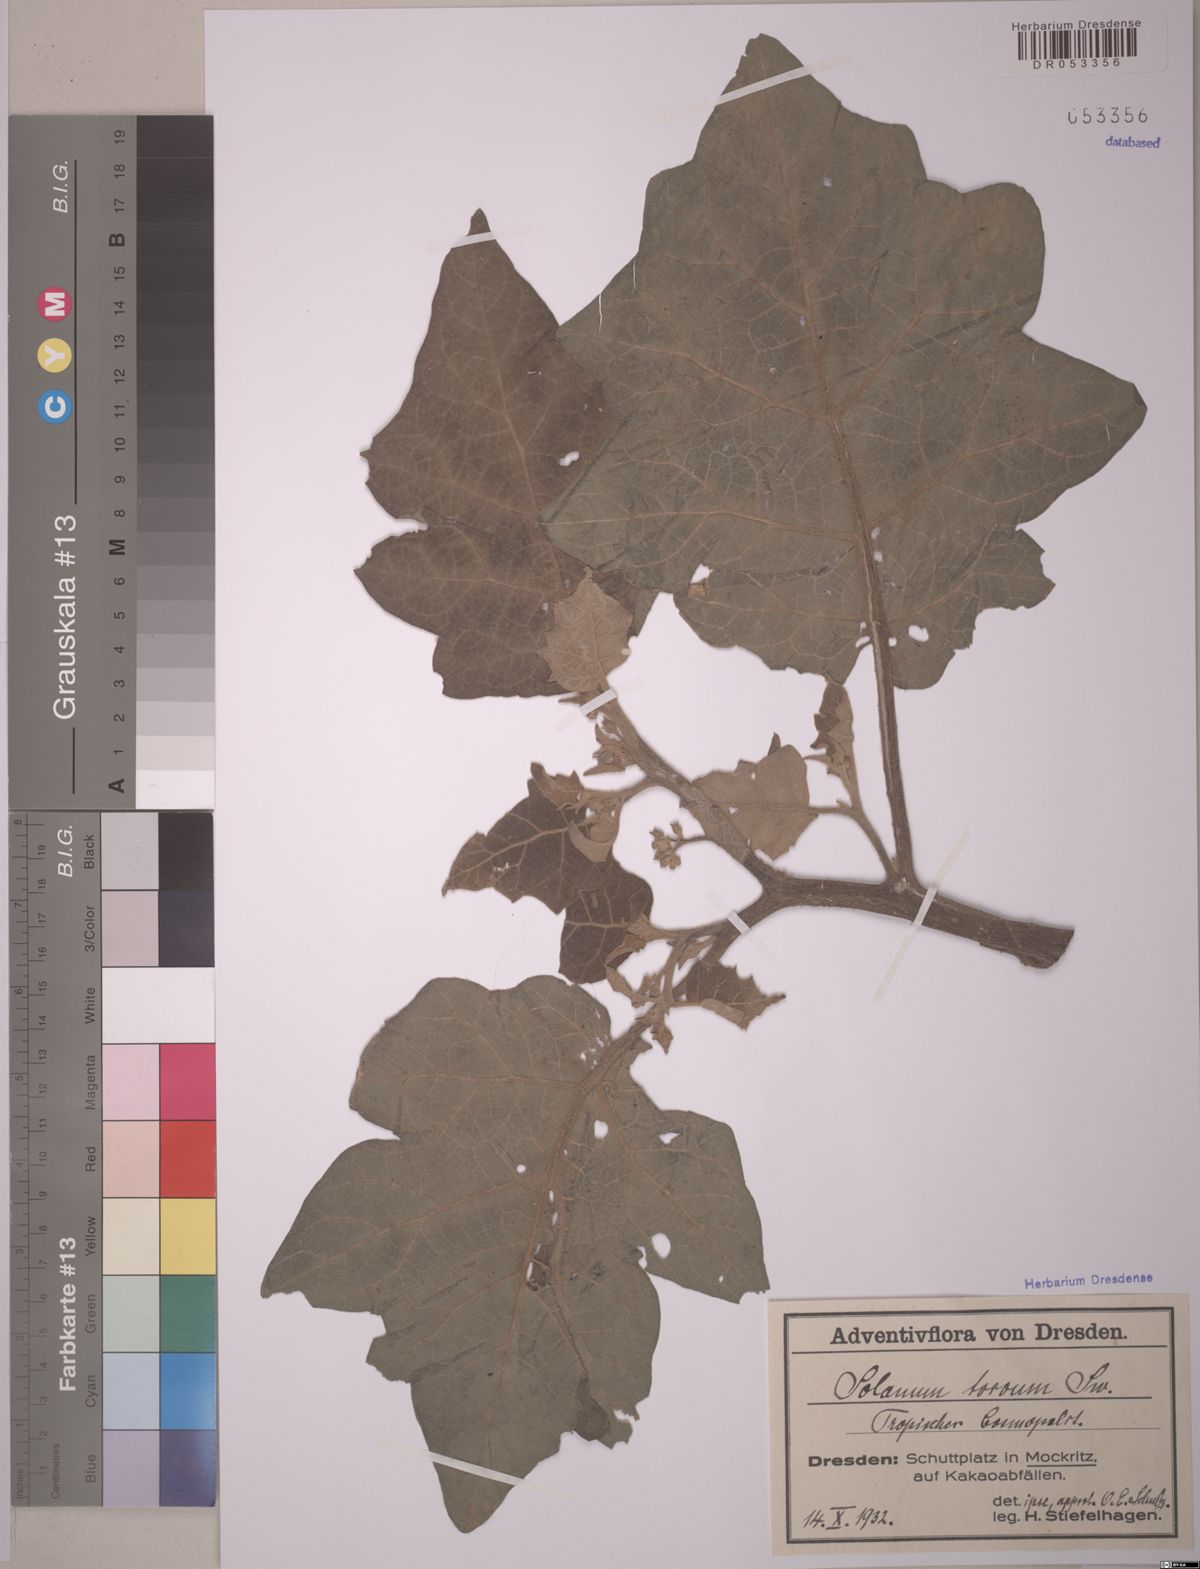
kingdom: Plantae
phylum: Tracheophyta
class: Magnoliopsida
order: Solanales
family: Solanaceae
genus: Solanum
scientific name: Solanum torvum
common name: Turkey berry
